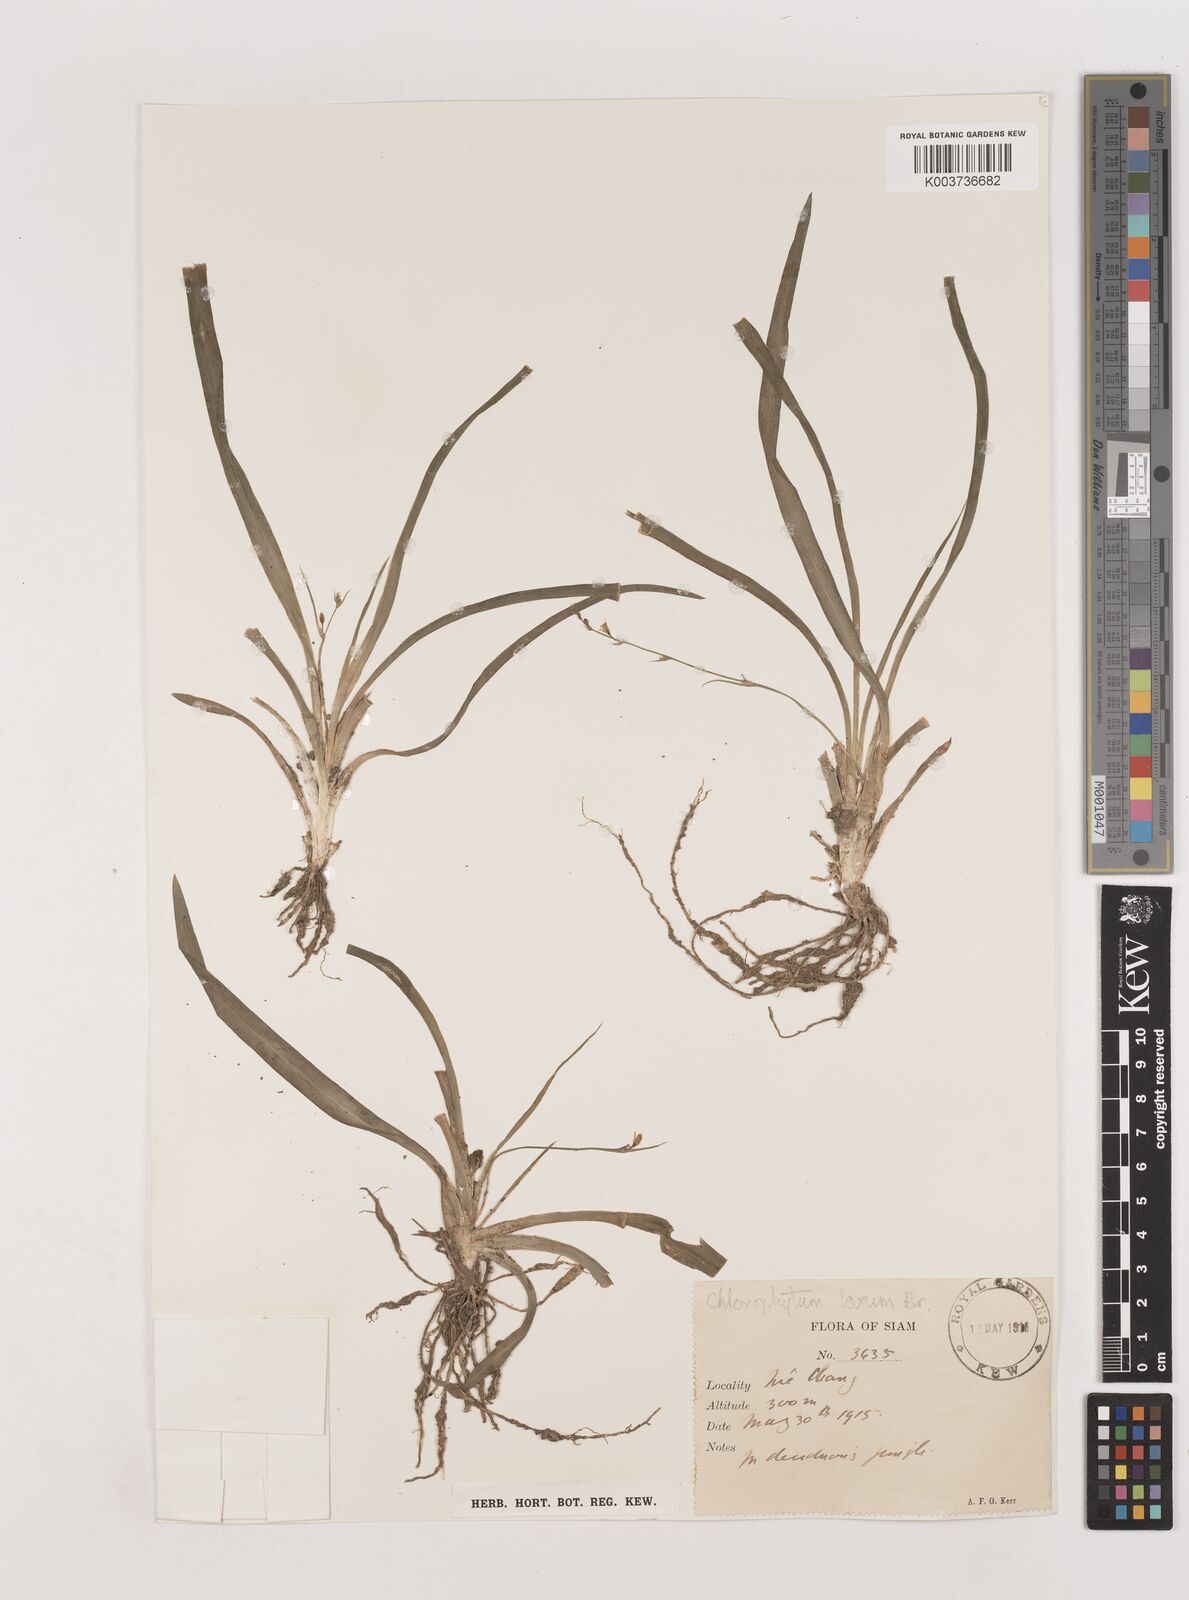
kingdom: Plantae
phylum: Tracheophyta
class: Liliopsida
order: Asparagales
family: Asparagaceae
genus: Chlorophytum
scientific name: Chlorophytum laxum
